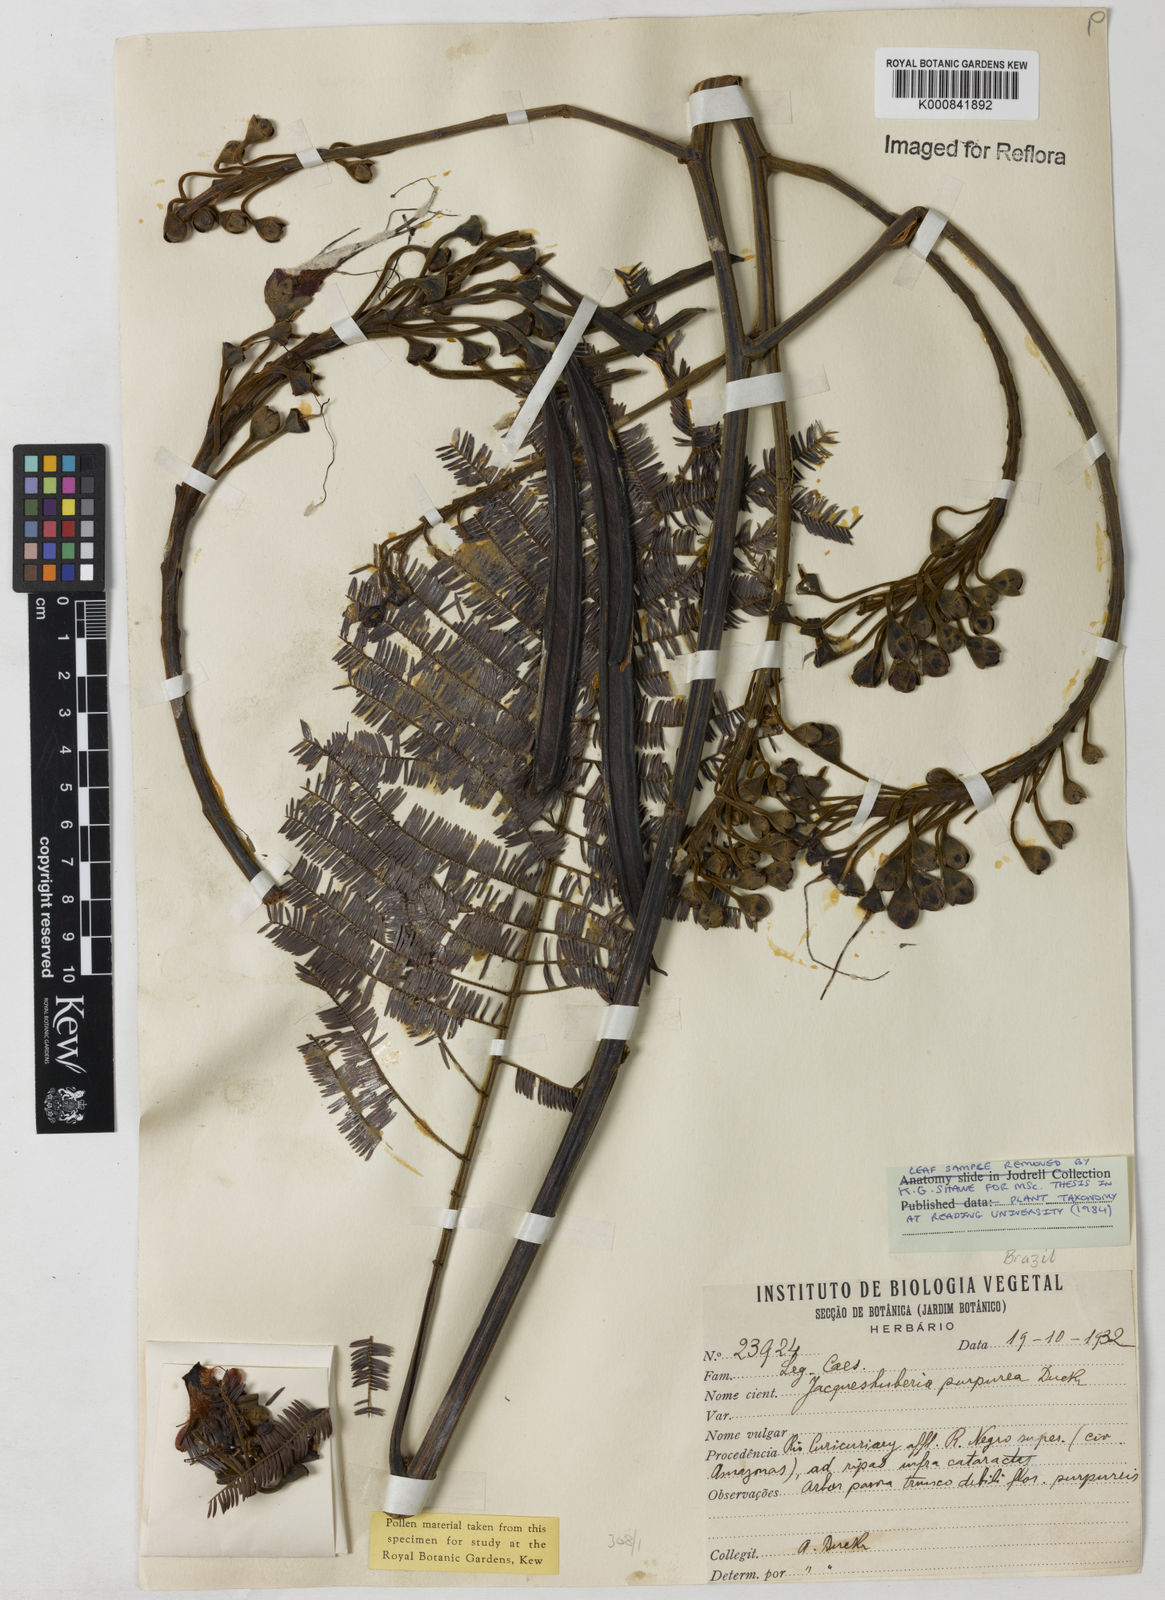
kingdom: Plantae
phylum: Tracheophyta
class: Magnoliopsida
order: Fabales
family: Fabaceae
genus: Jacqueshuberia
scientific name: Jacqueshuberia purpurea
